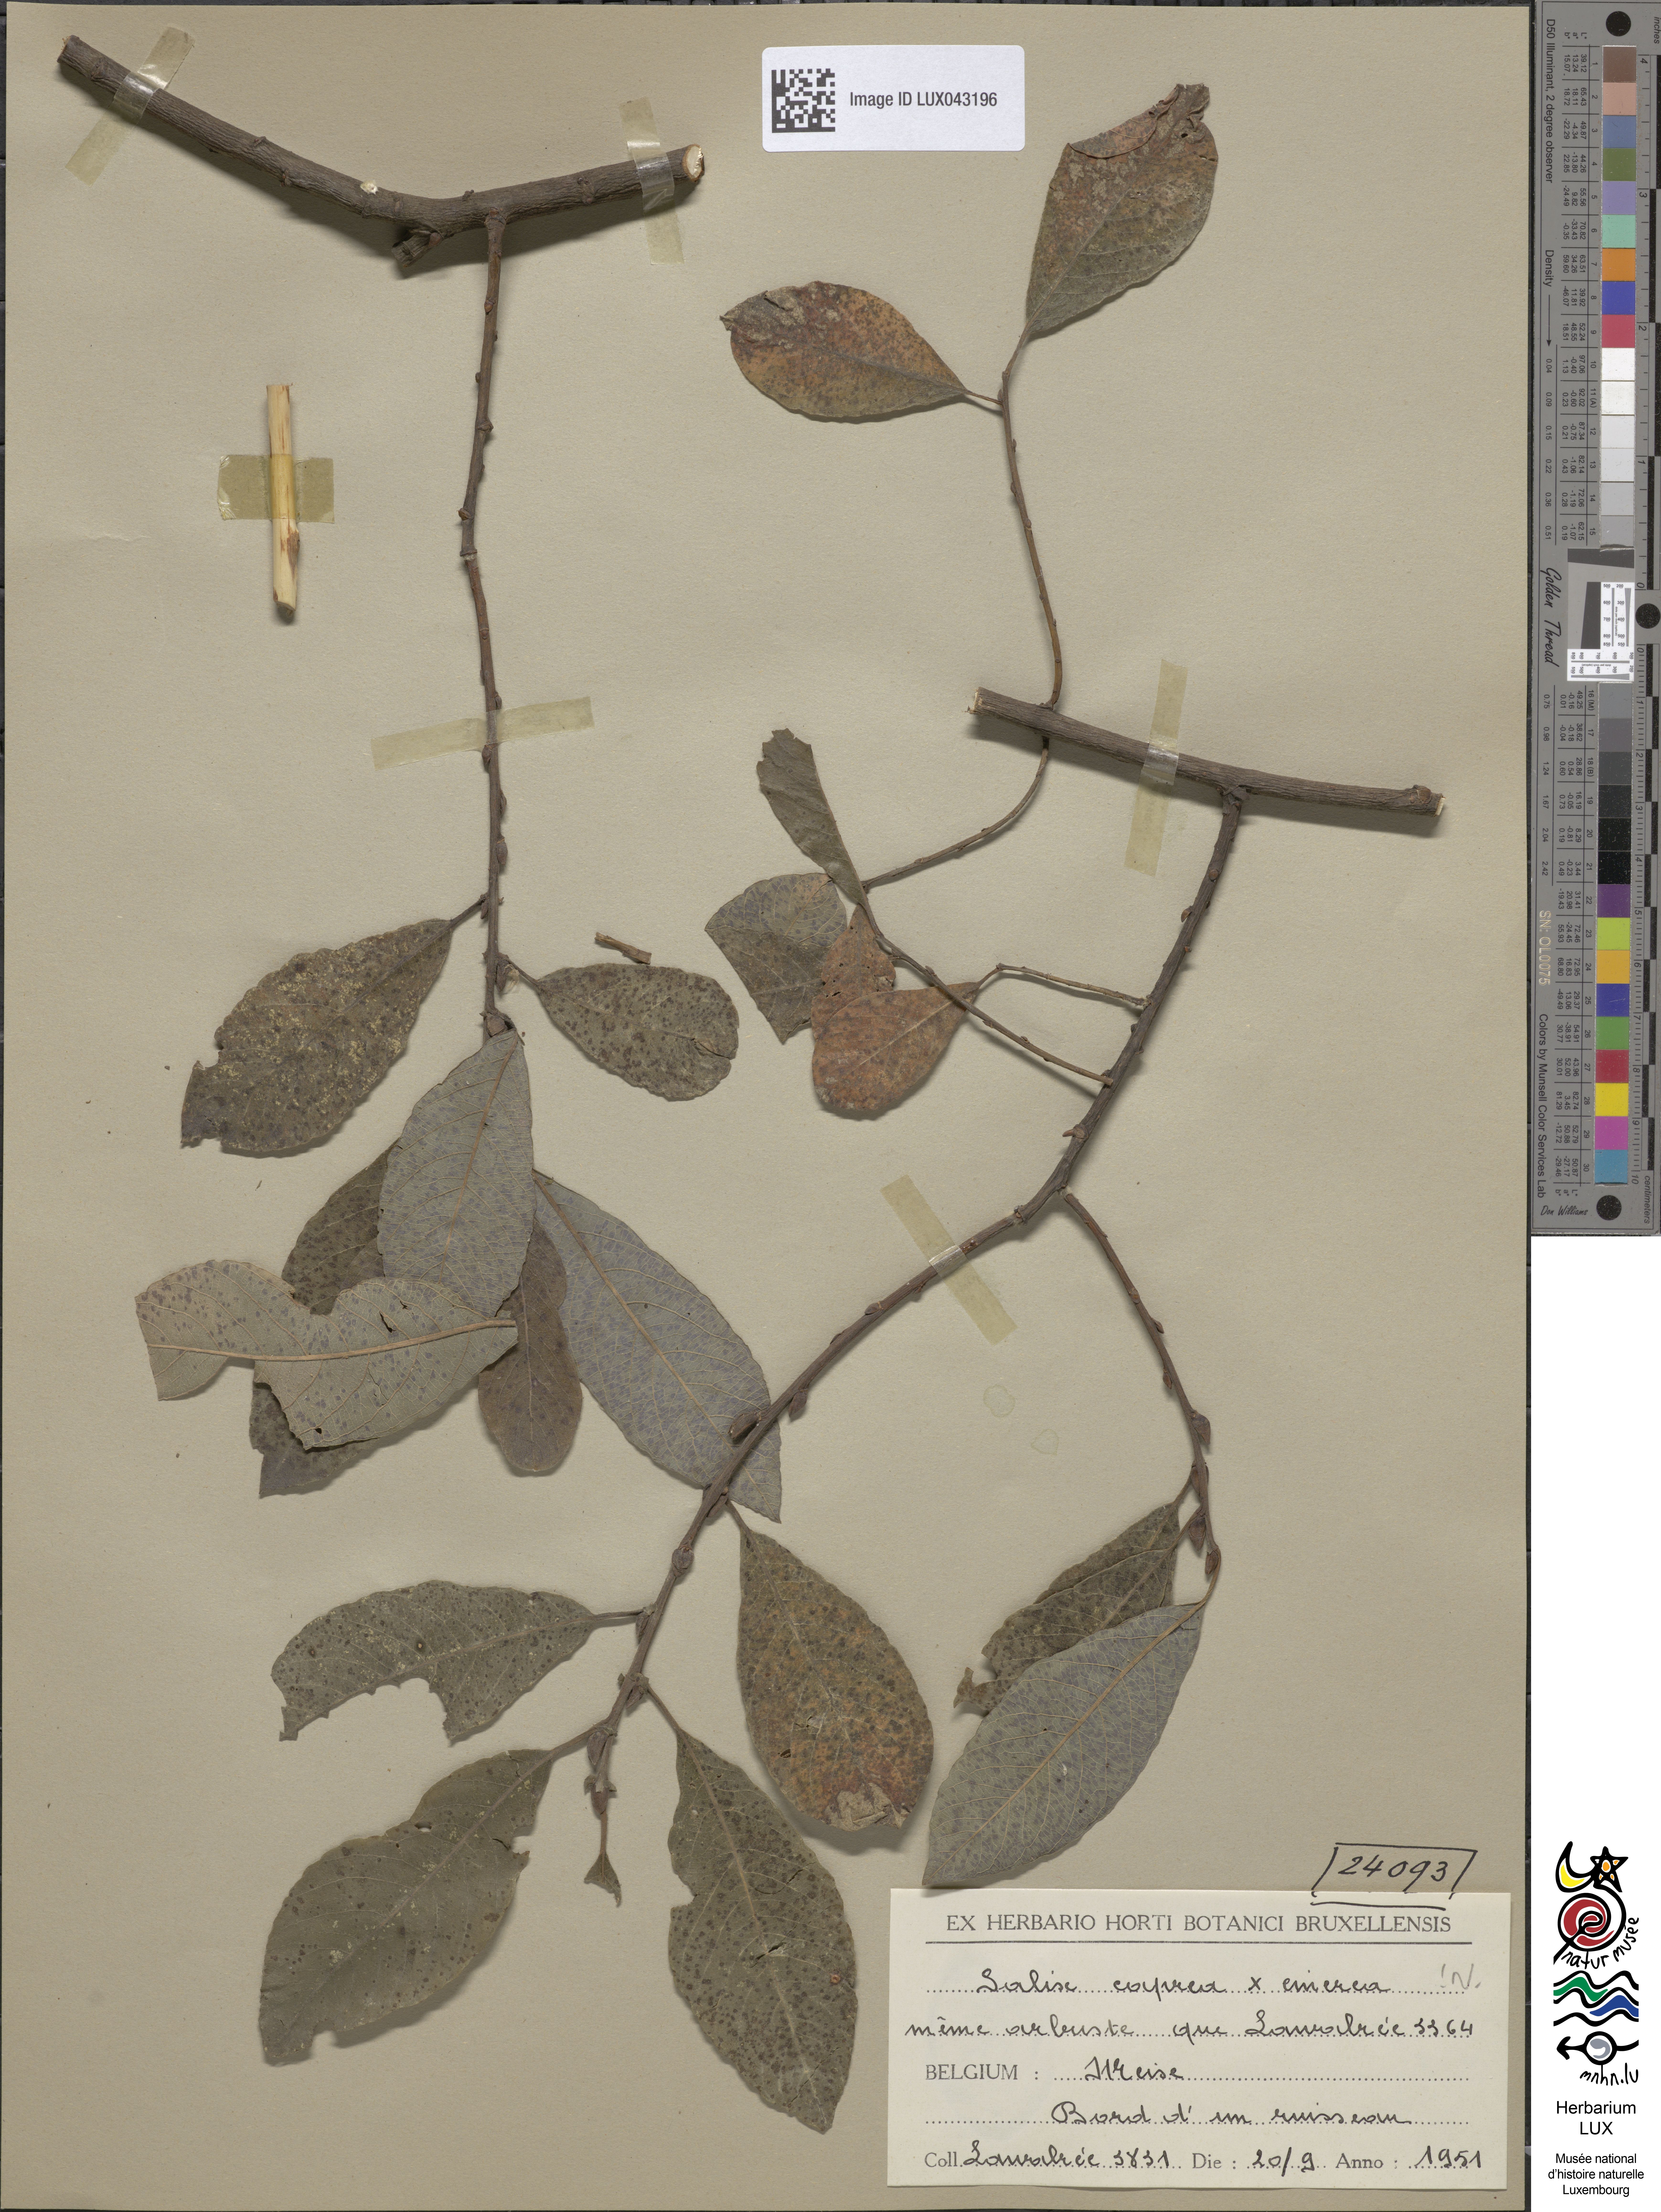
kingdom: Plantae
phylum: Tracheophyta
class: Magnoliopsida
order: Malpighiales
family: Salicaceae
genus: Salix
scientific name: Salix
